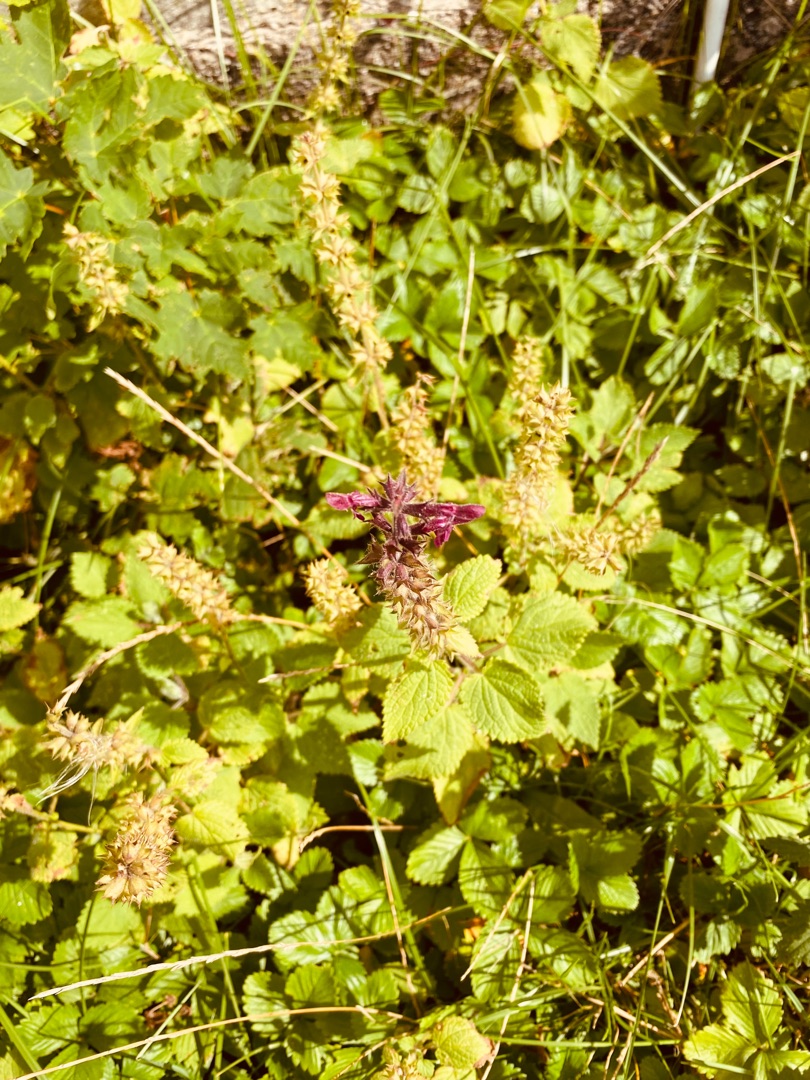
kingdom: Plantae
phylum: Tracheophyta
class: Magnoliopsida
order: Lamiales
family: Lamiaceae
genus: Stachys
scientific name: Stachys sylvatica
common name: Skov-galtetand
